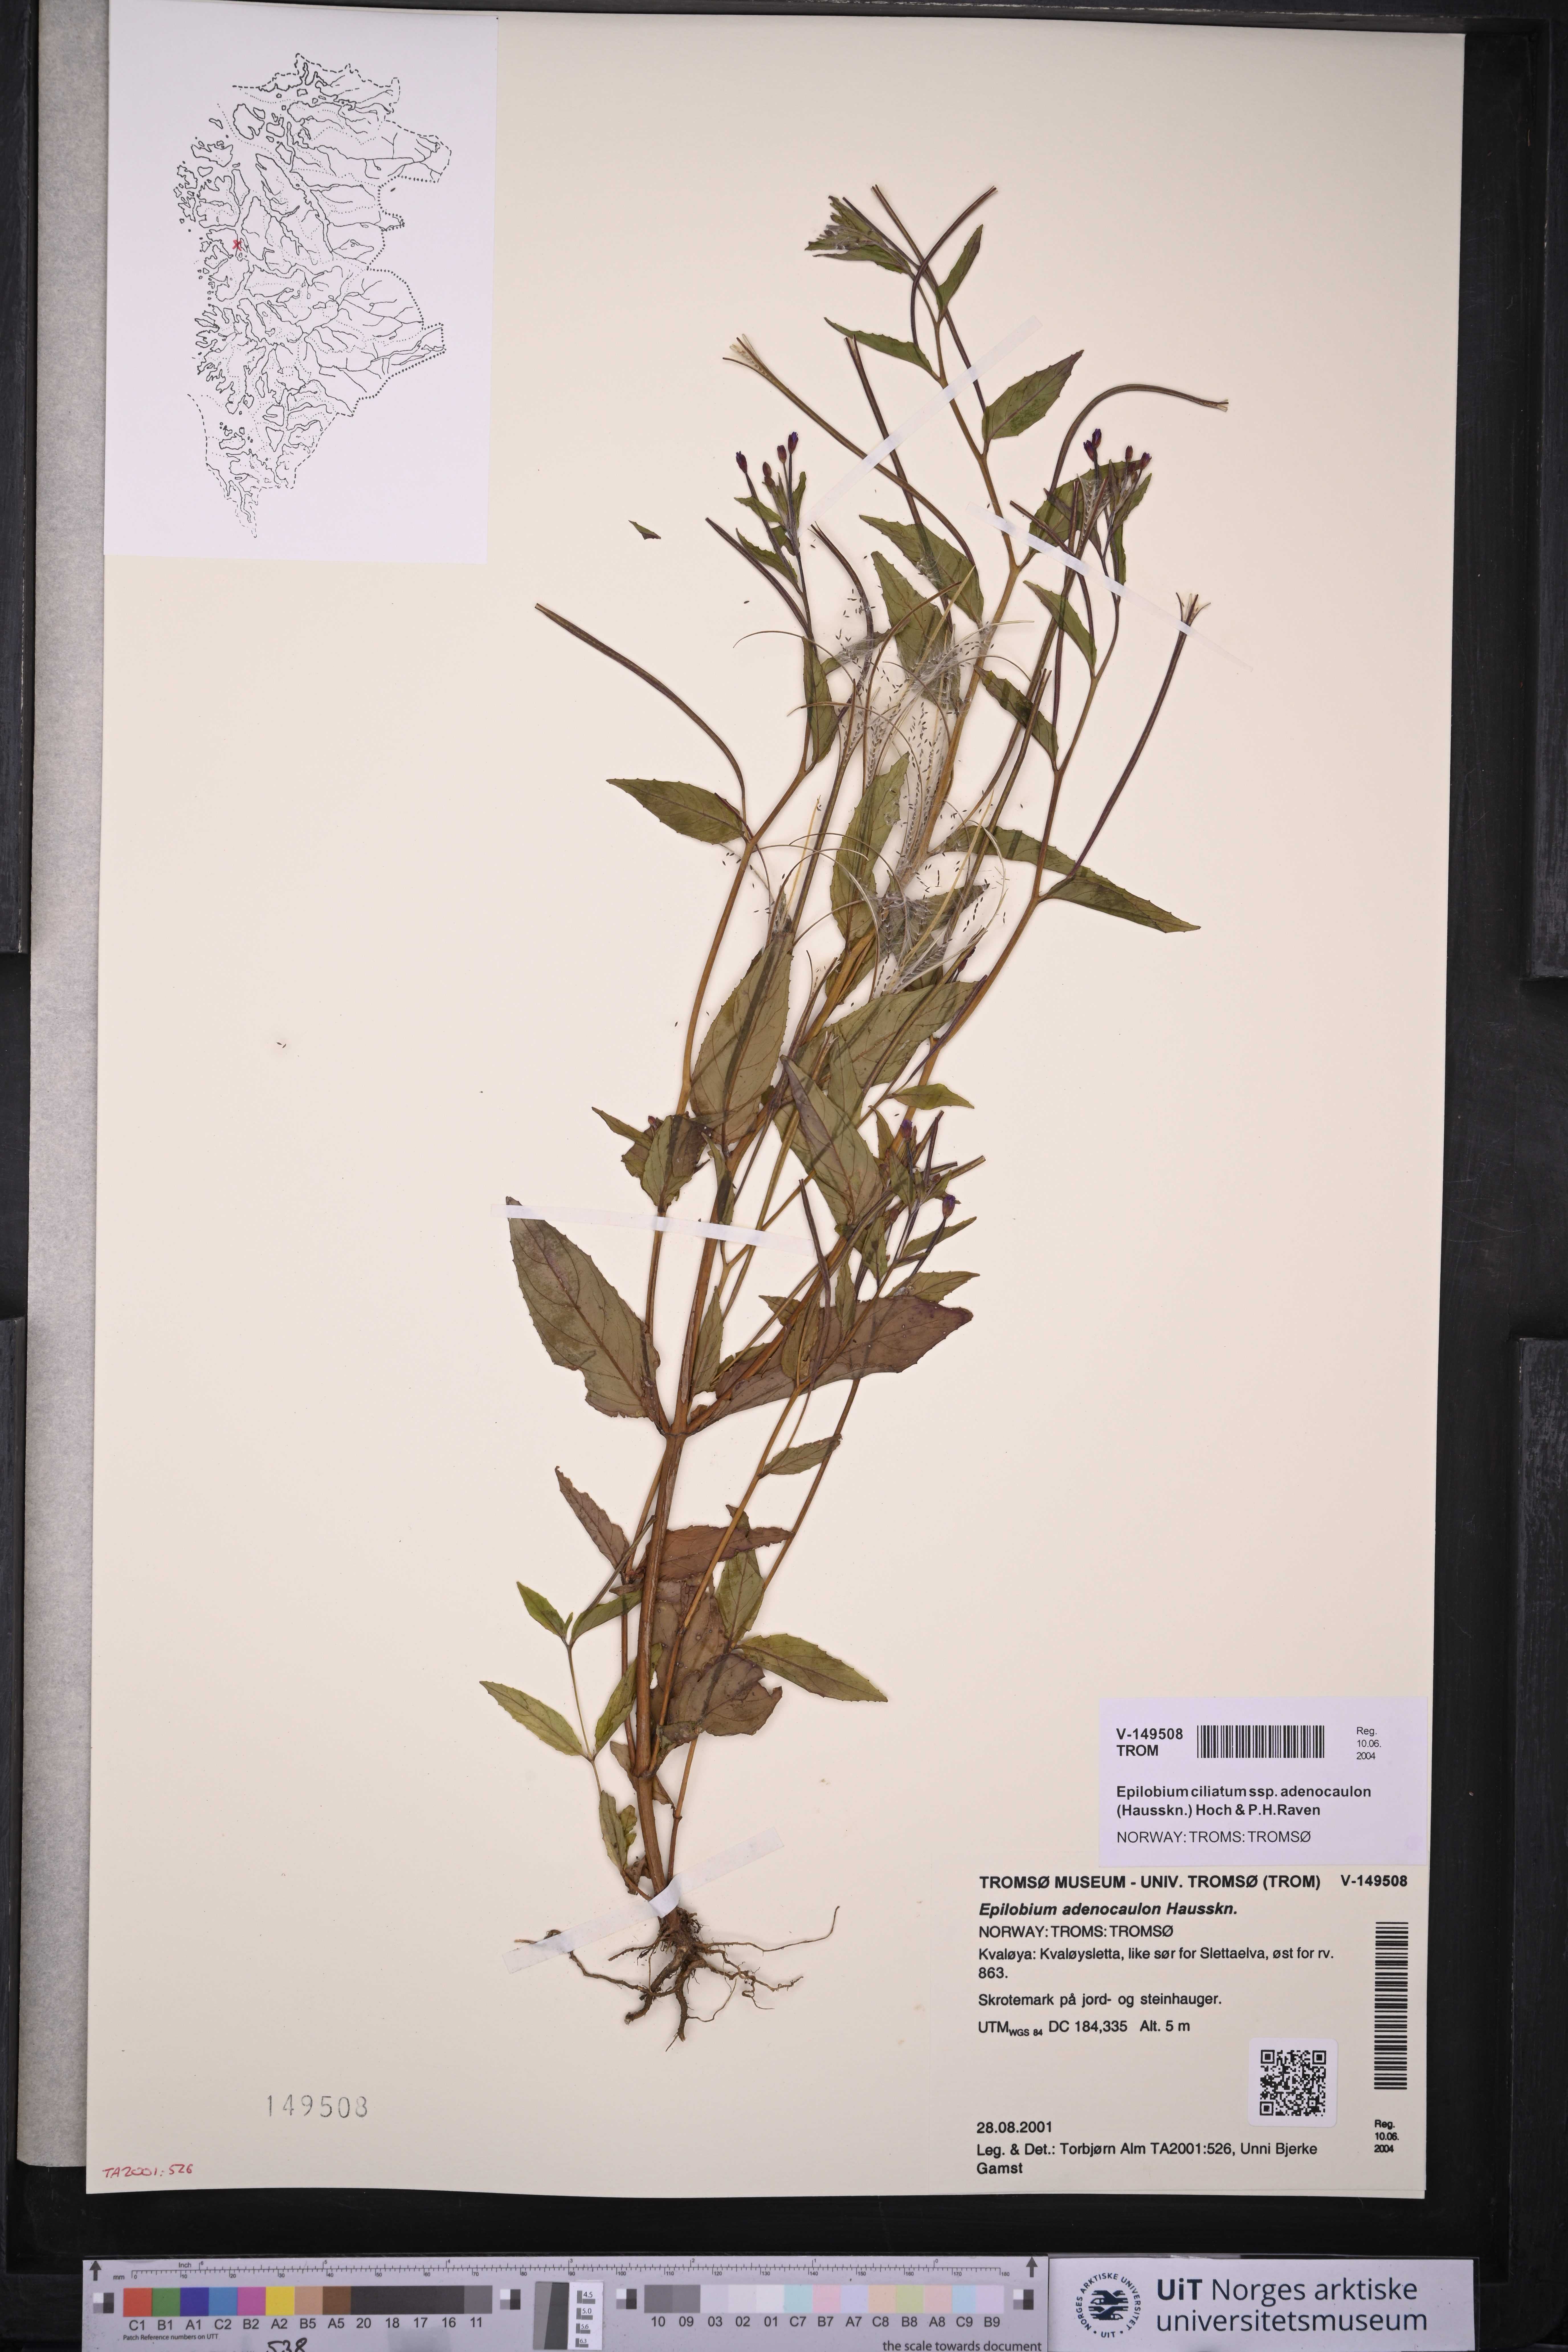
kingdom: Plantae
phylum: Tracheophyta
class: Magnoliopsida
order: Myrtales
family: Onagraceae
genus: Epilobium
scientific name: Epilobium ciliatum
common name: American willowherb
